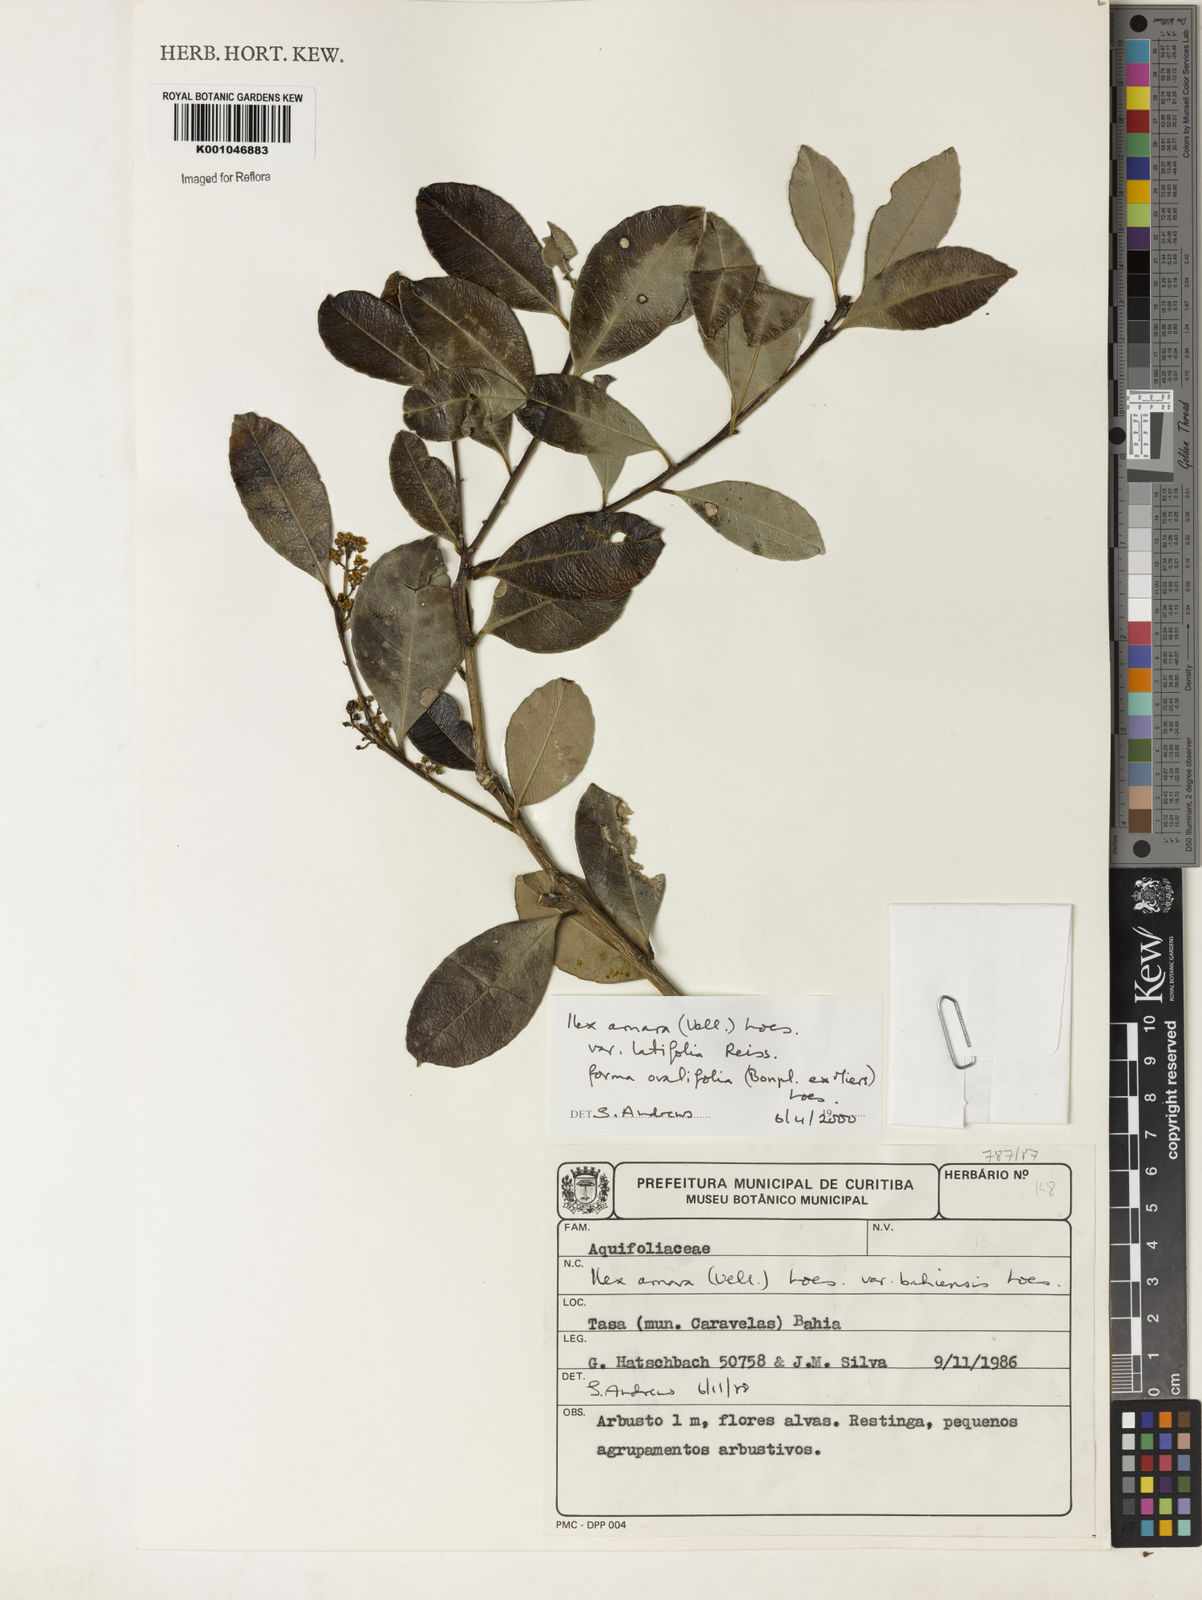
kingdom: Plantae
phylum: Tracheophyta
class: Magnoliopsida
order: Aquifoliales
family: Aquifoliaceae
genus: Ilex
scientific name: Ilex
